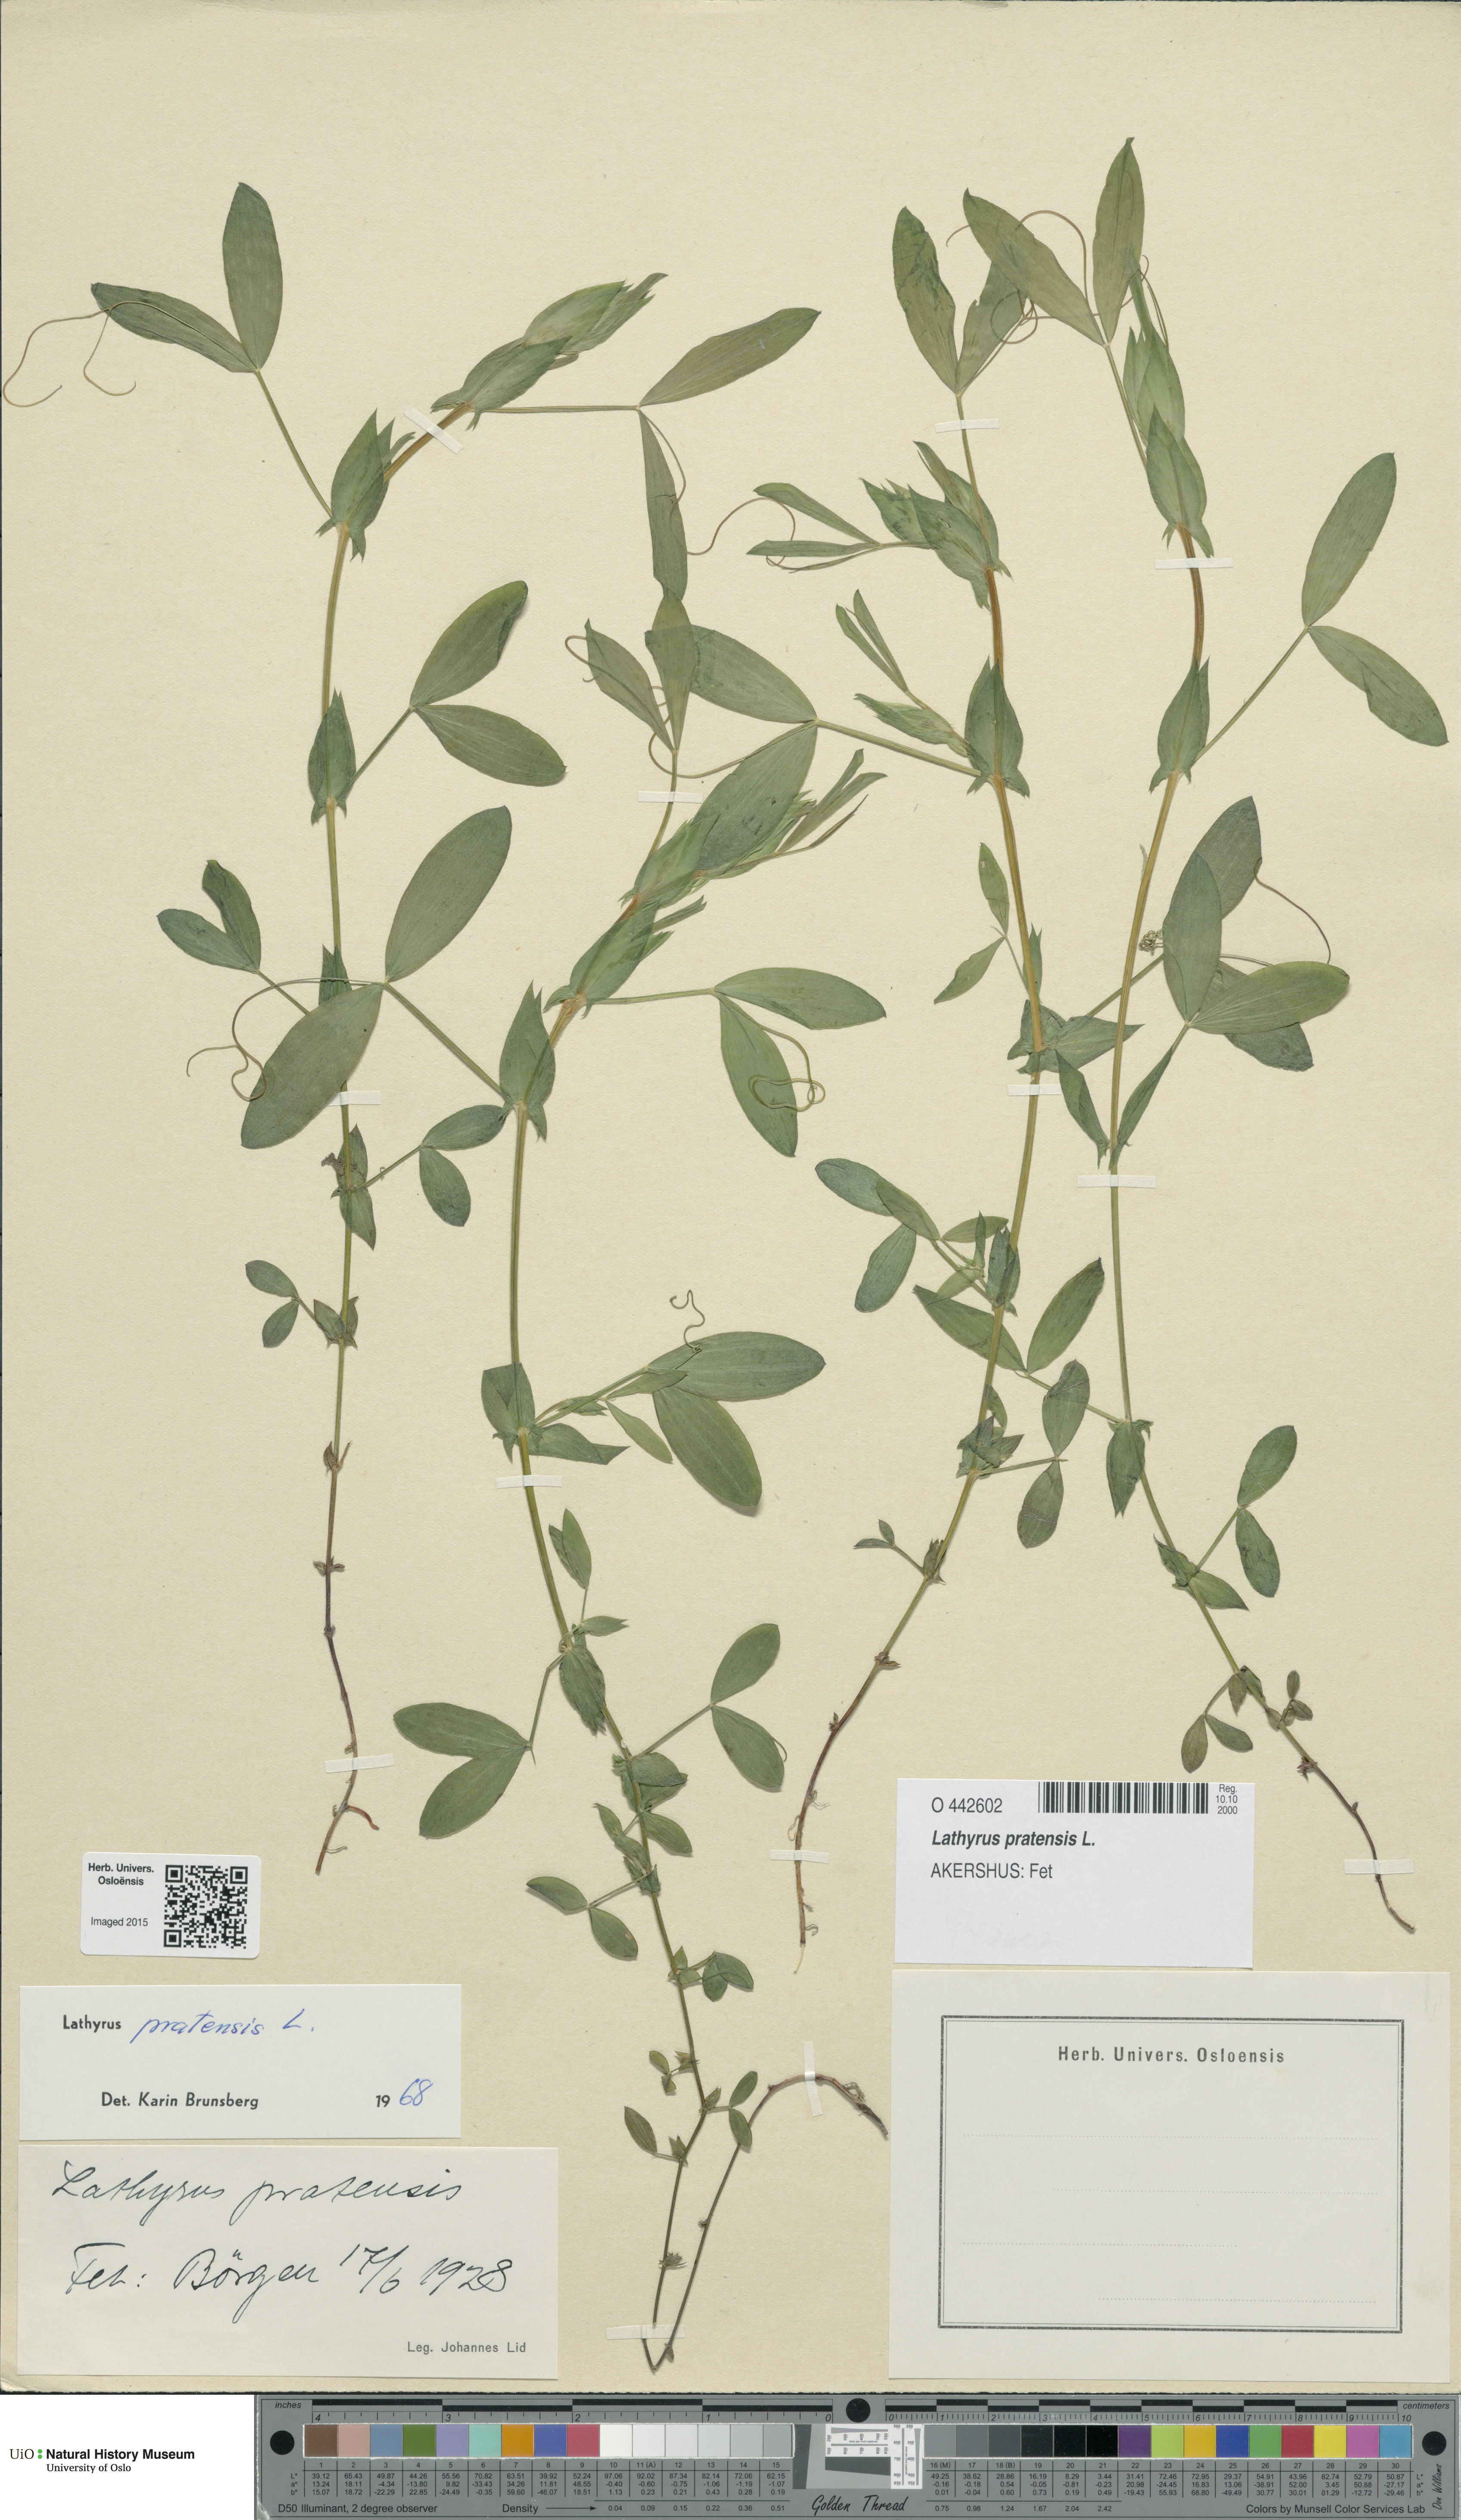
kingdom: Plantae
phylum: Tracheophyta
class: Magnoliopsida
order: Fabales
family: Fabaceae
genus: Lathyrus
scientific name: Lathyrus pratensis
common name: Meadow vetchling
